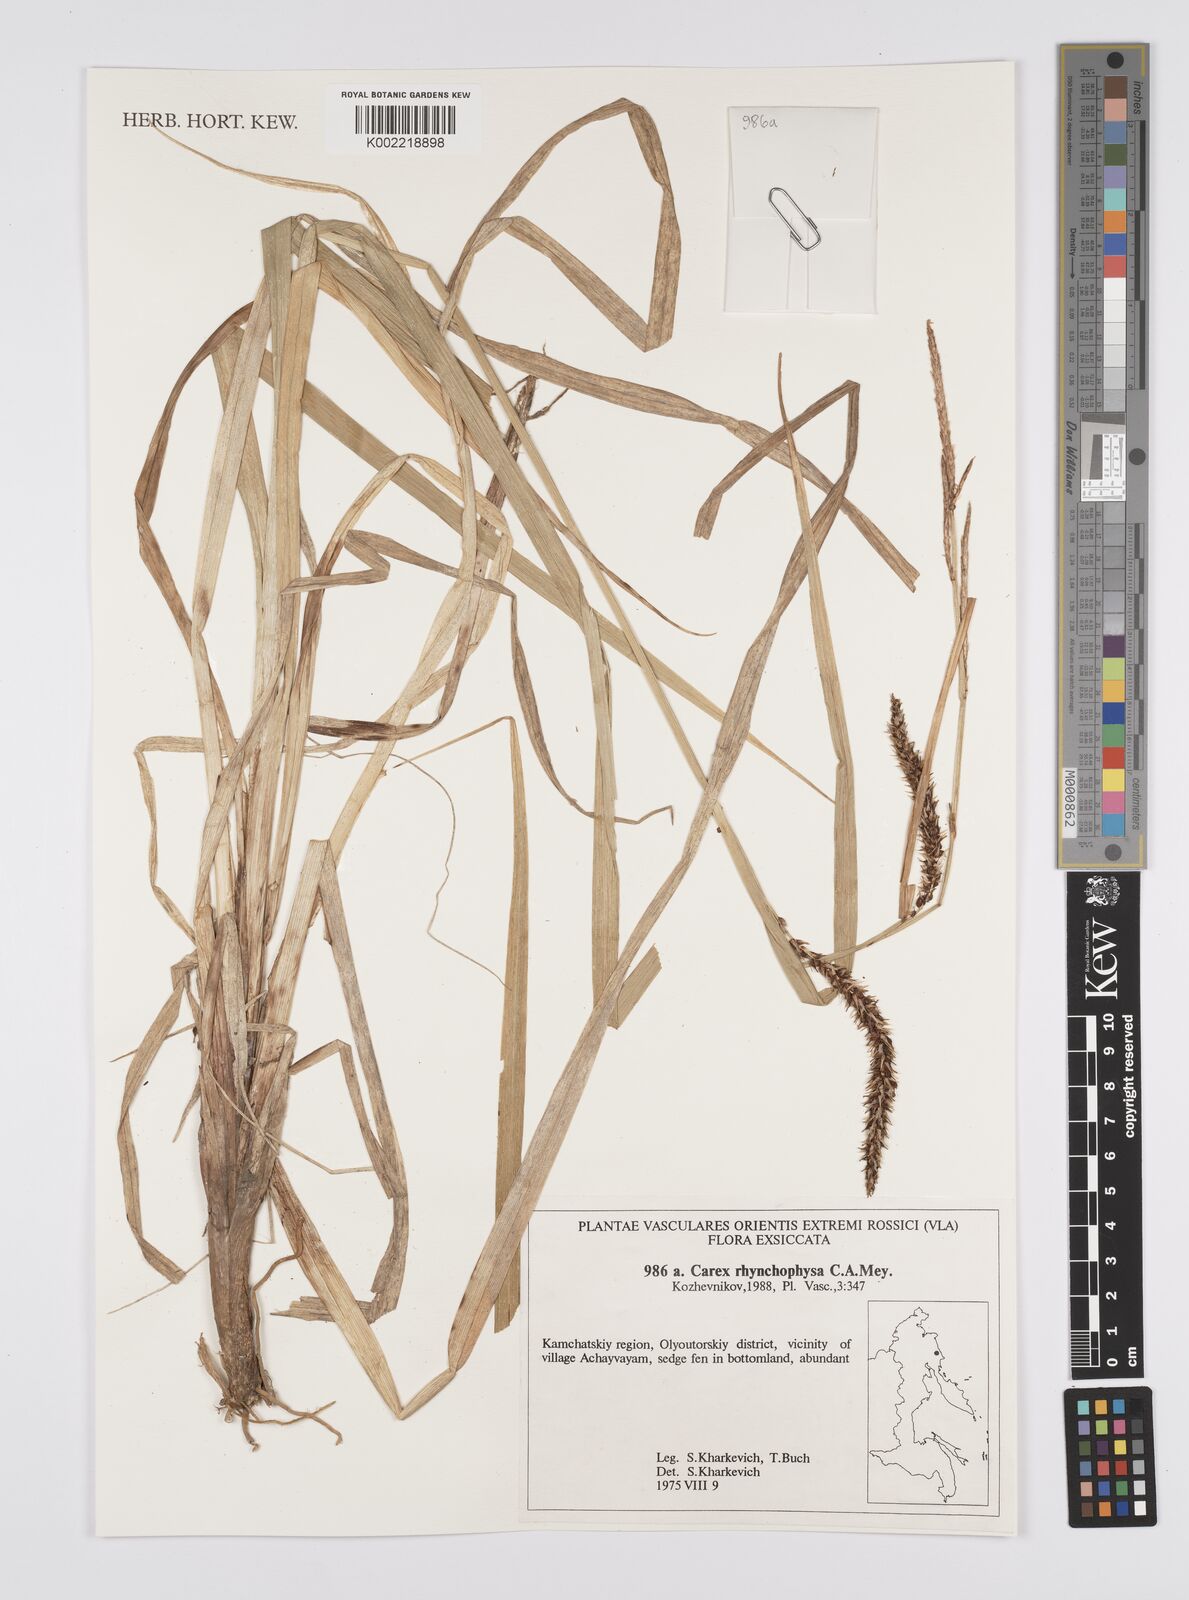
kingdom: Plantae
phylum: Tracheophyta
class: Liliopsida
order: Poales
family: Cyperaceae
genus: Carex
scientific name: Carex utriculata
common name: Beaked sedge
